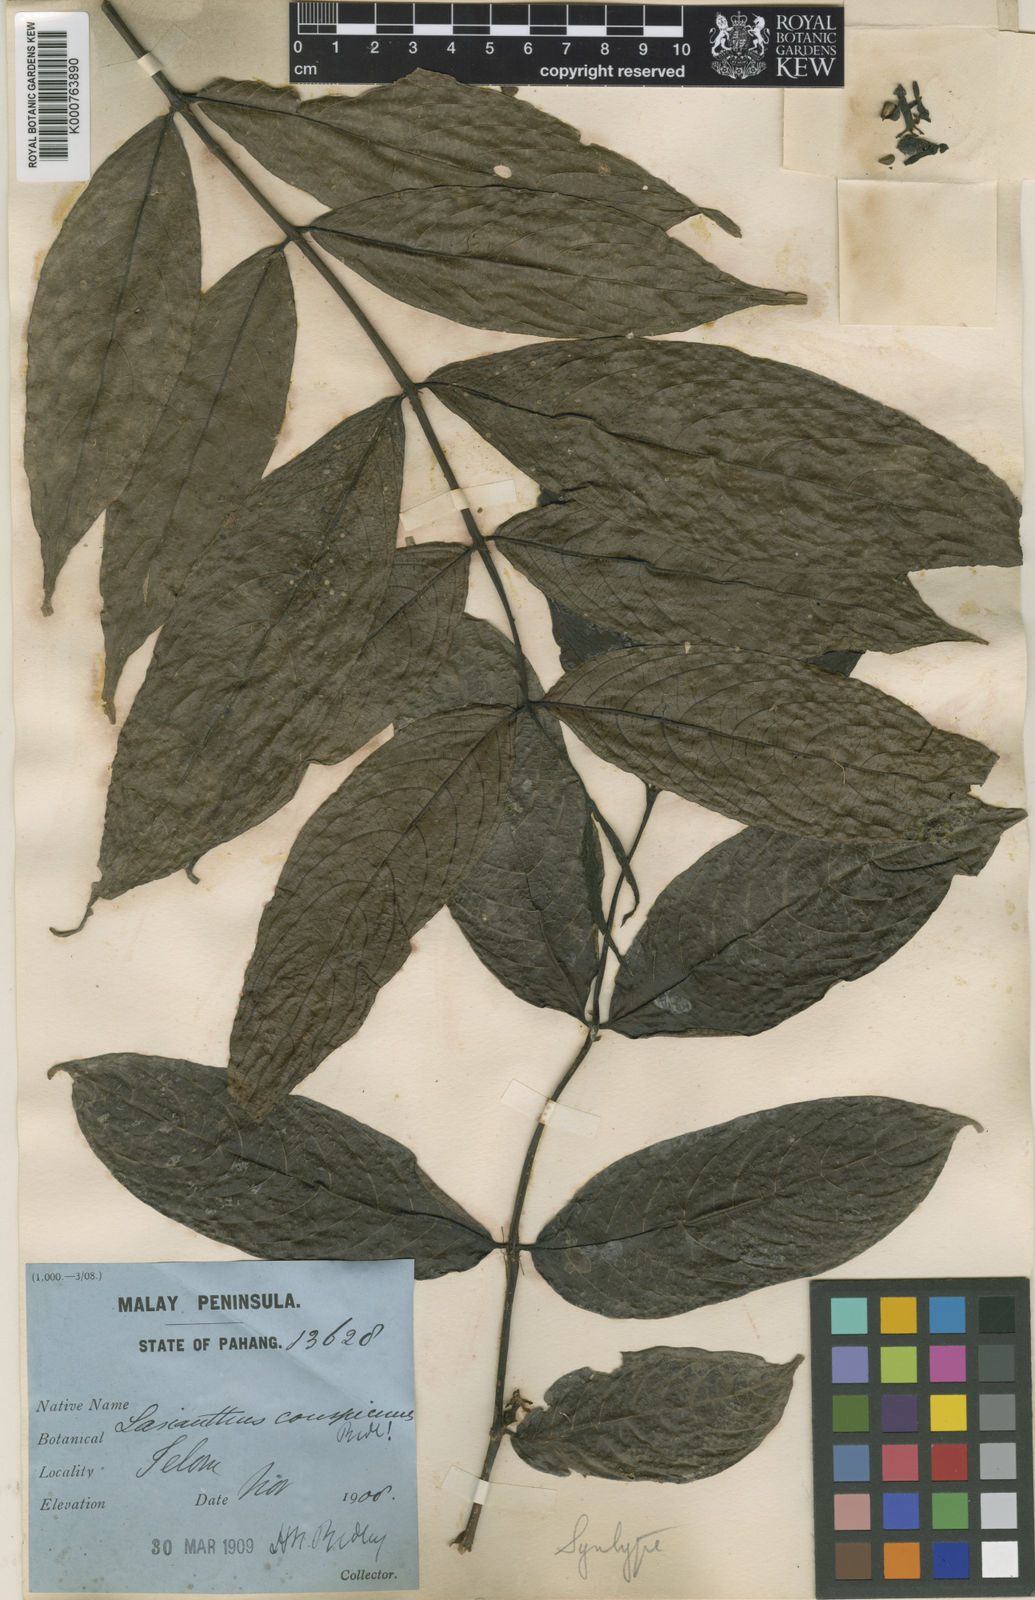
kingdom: Plantae
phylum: Tracheophyta
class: Magnoliopsida
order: Gentianales
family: Rubiaceae
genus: Lasianthus
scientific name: Lasianthus conspicuus
